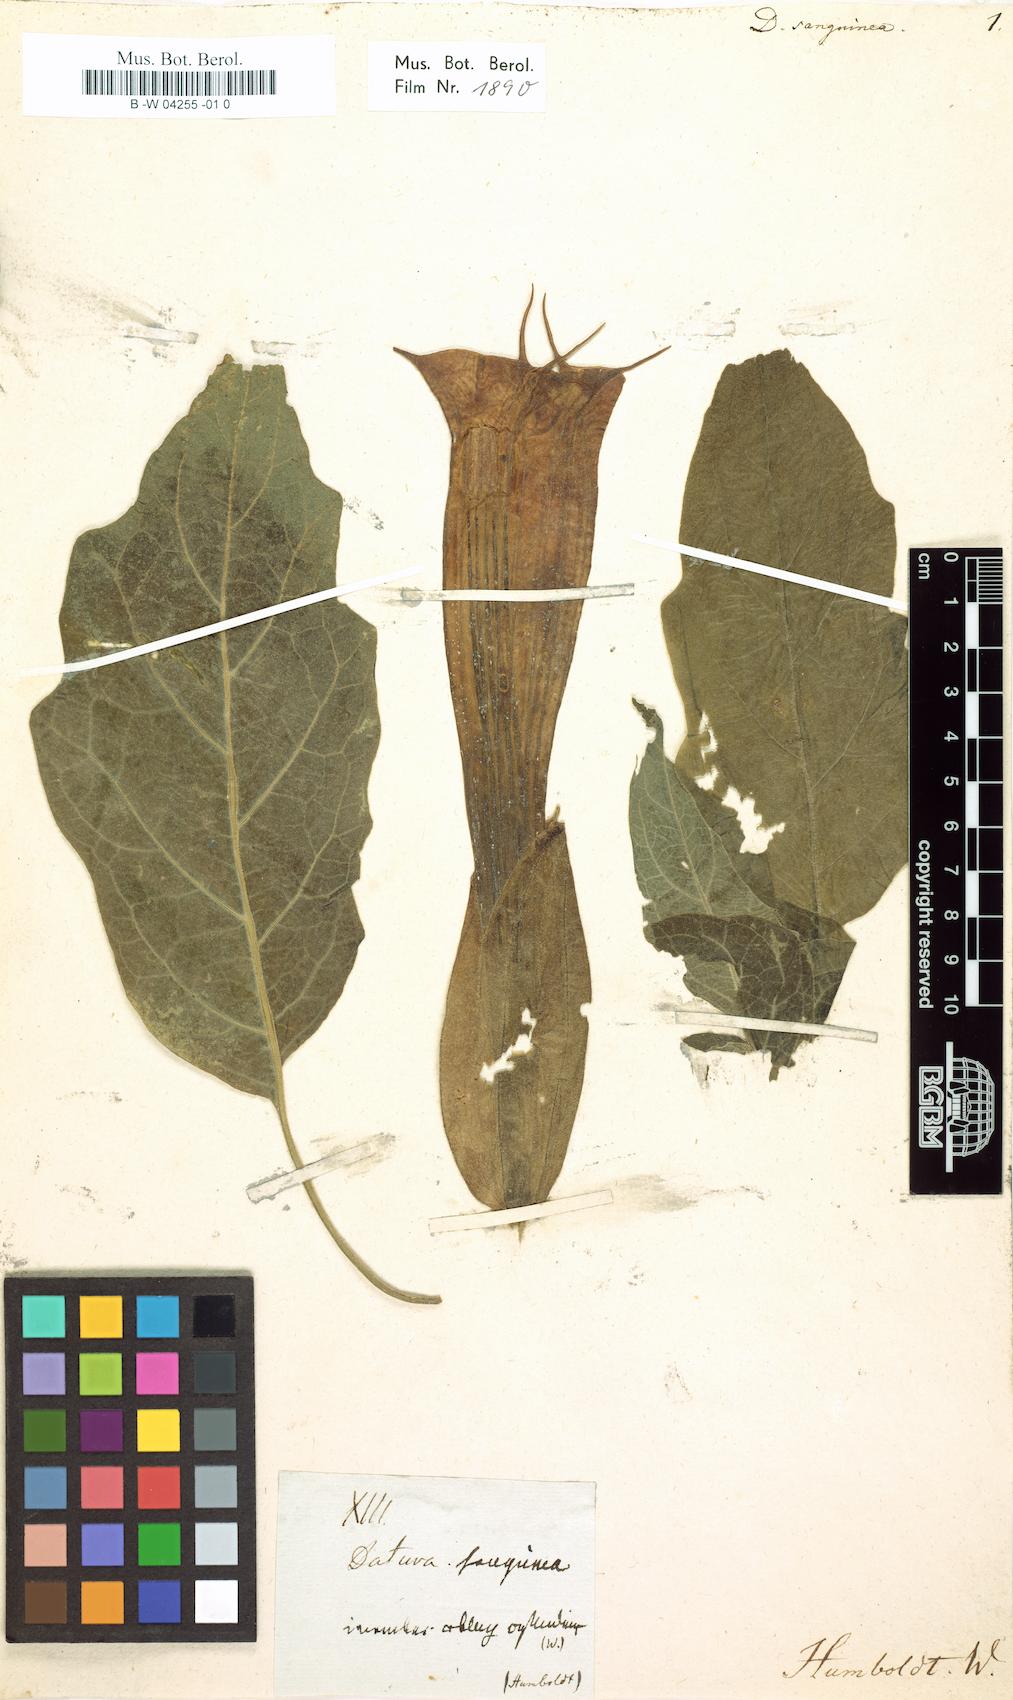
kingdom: Plantae
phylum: Tracheophyta
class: Magnoliopsida
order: Solanales
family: Solanaceae
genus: Brugmansia
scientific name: Brugmansia sanguinea
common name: Red floripontio
